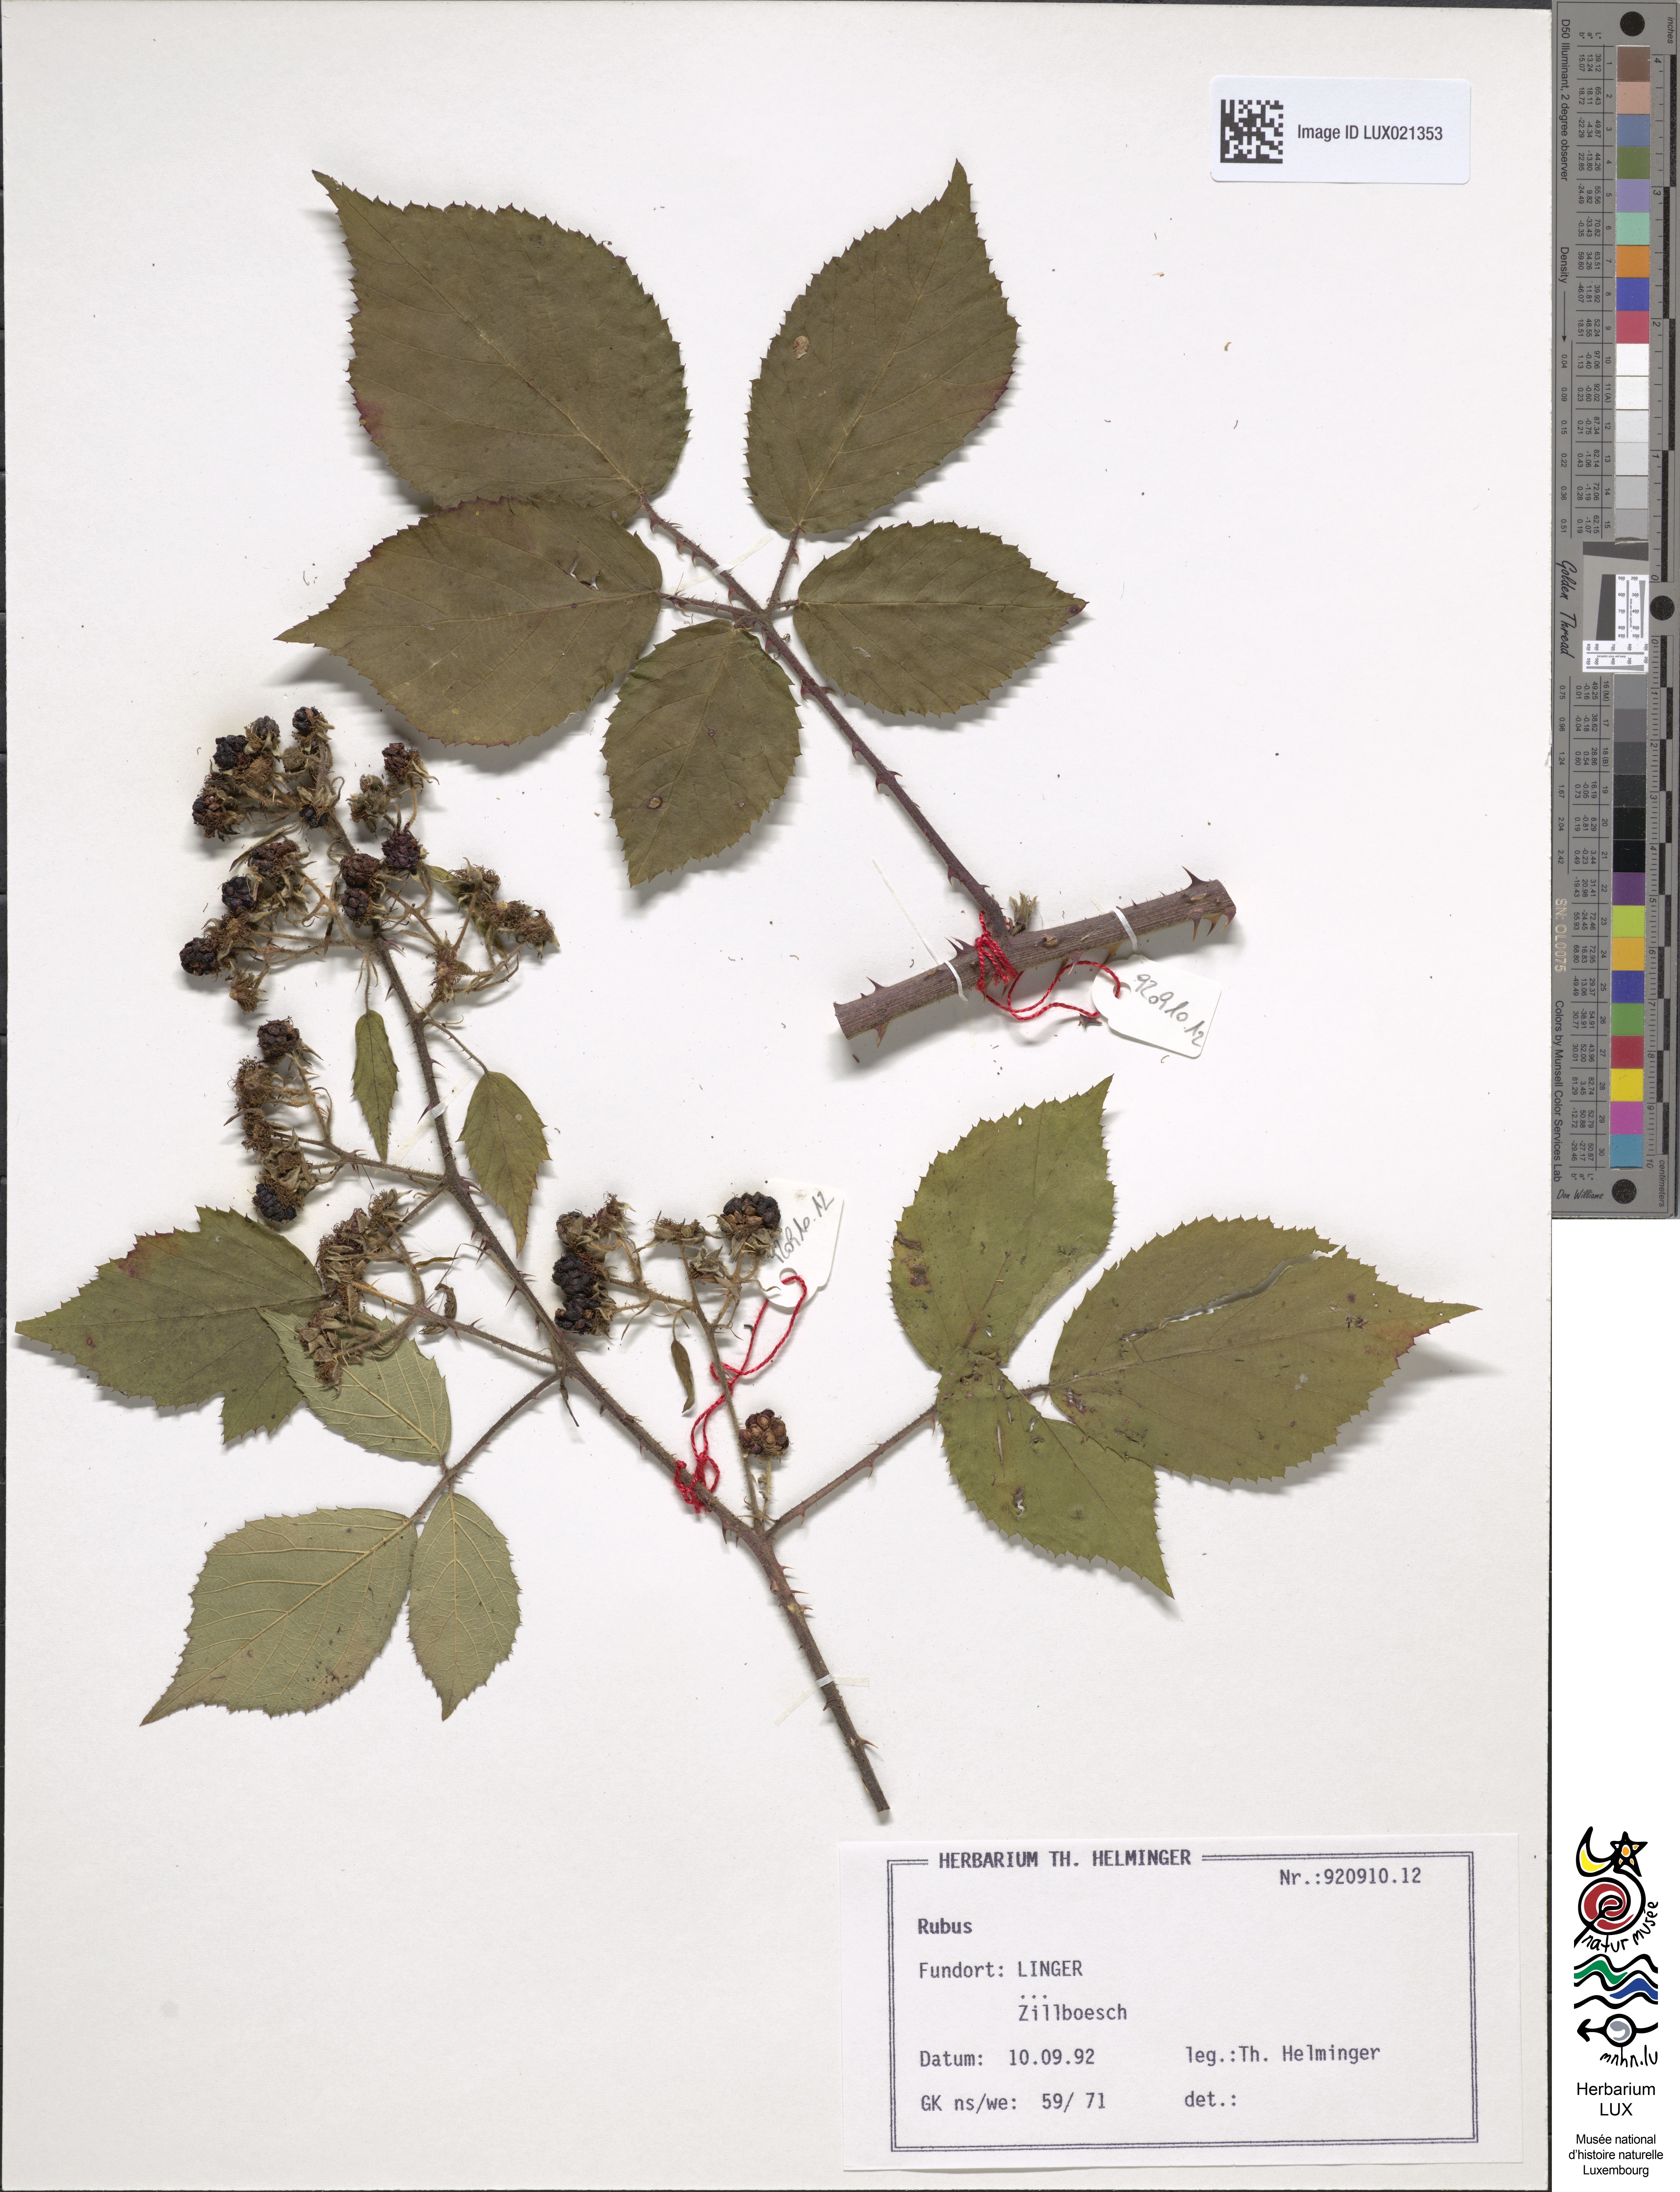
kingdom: Plantae
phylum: Tracheophyta
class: Magnoliopsida
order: Rosales
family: Rosaceae
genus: Rubus
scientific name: Rubus
